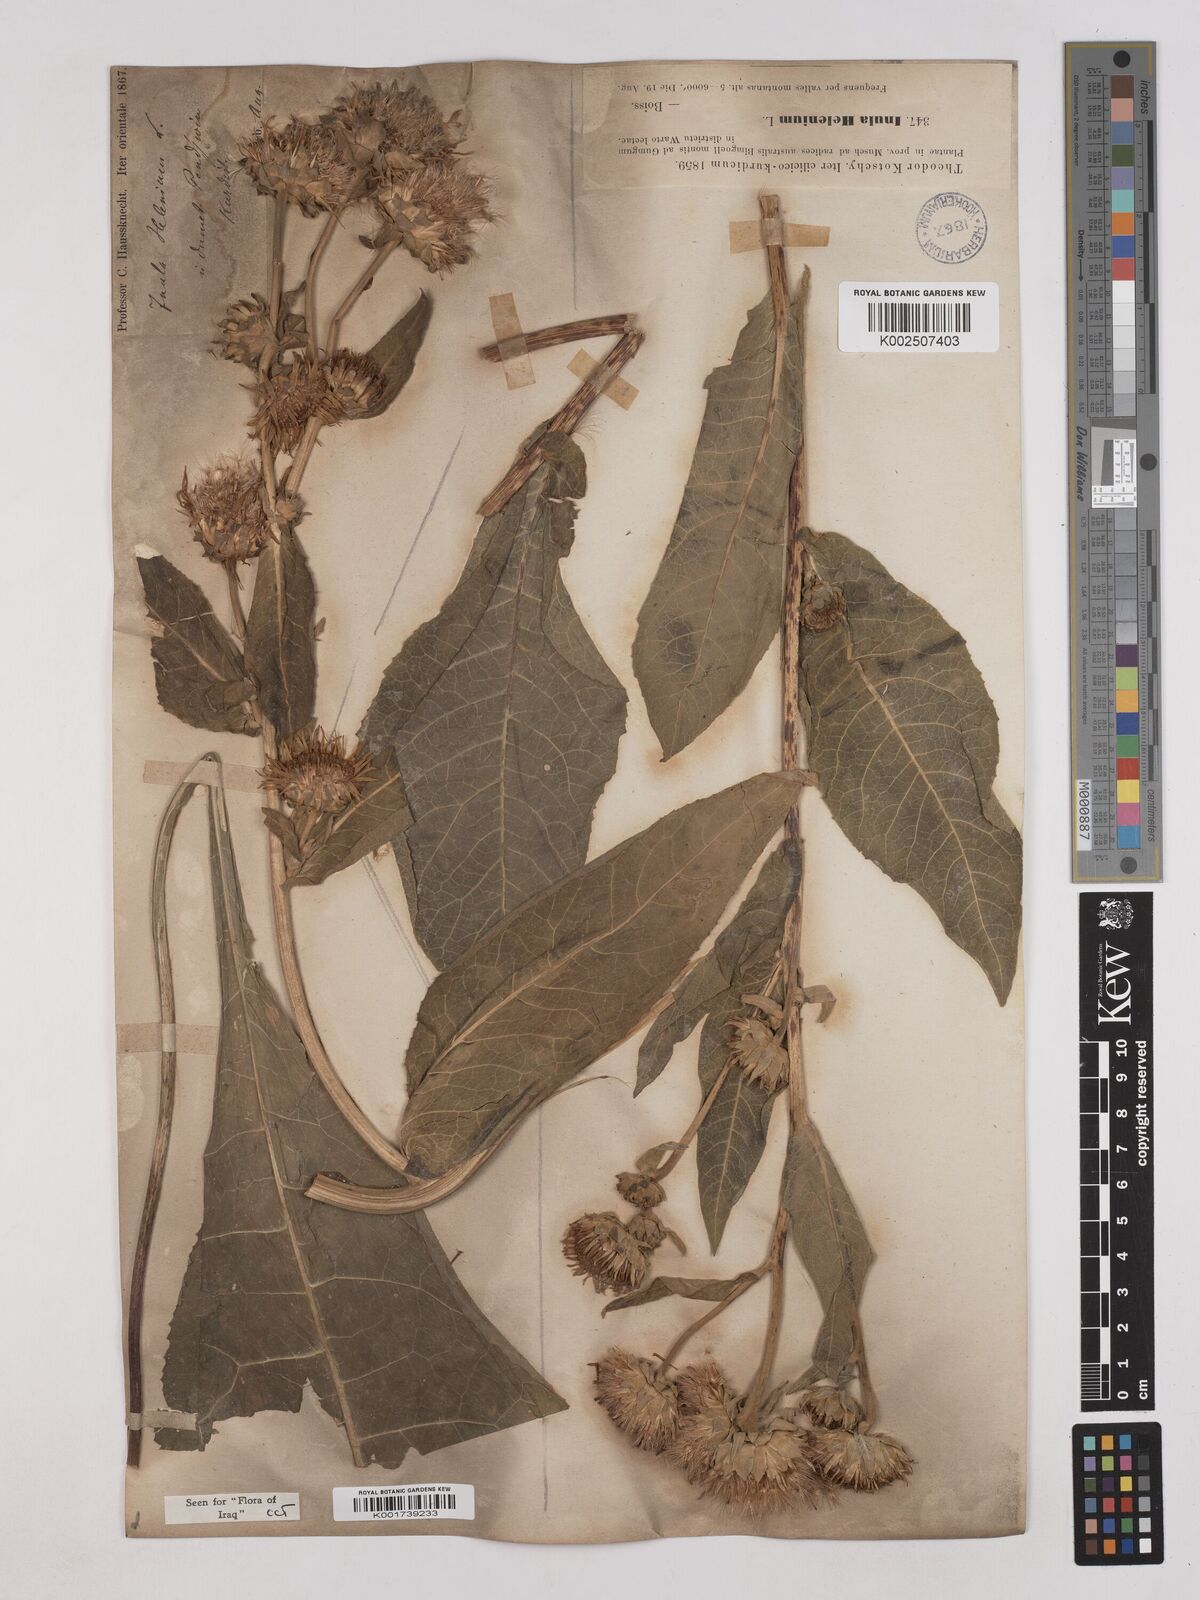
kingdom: Plantae
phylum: Tracheophyta
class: Magnoliopsida
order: Asterales
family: Asteraceae
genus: Inula
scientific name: Inula
